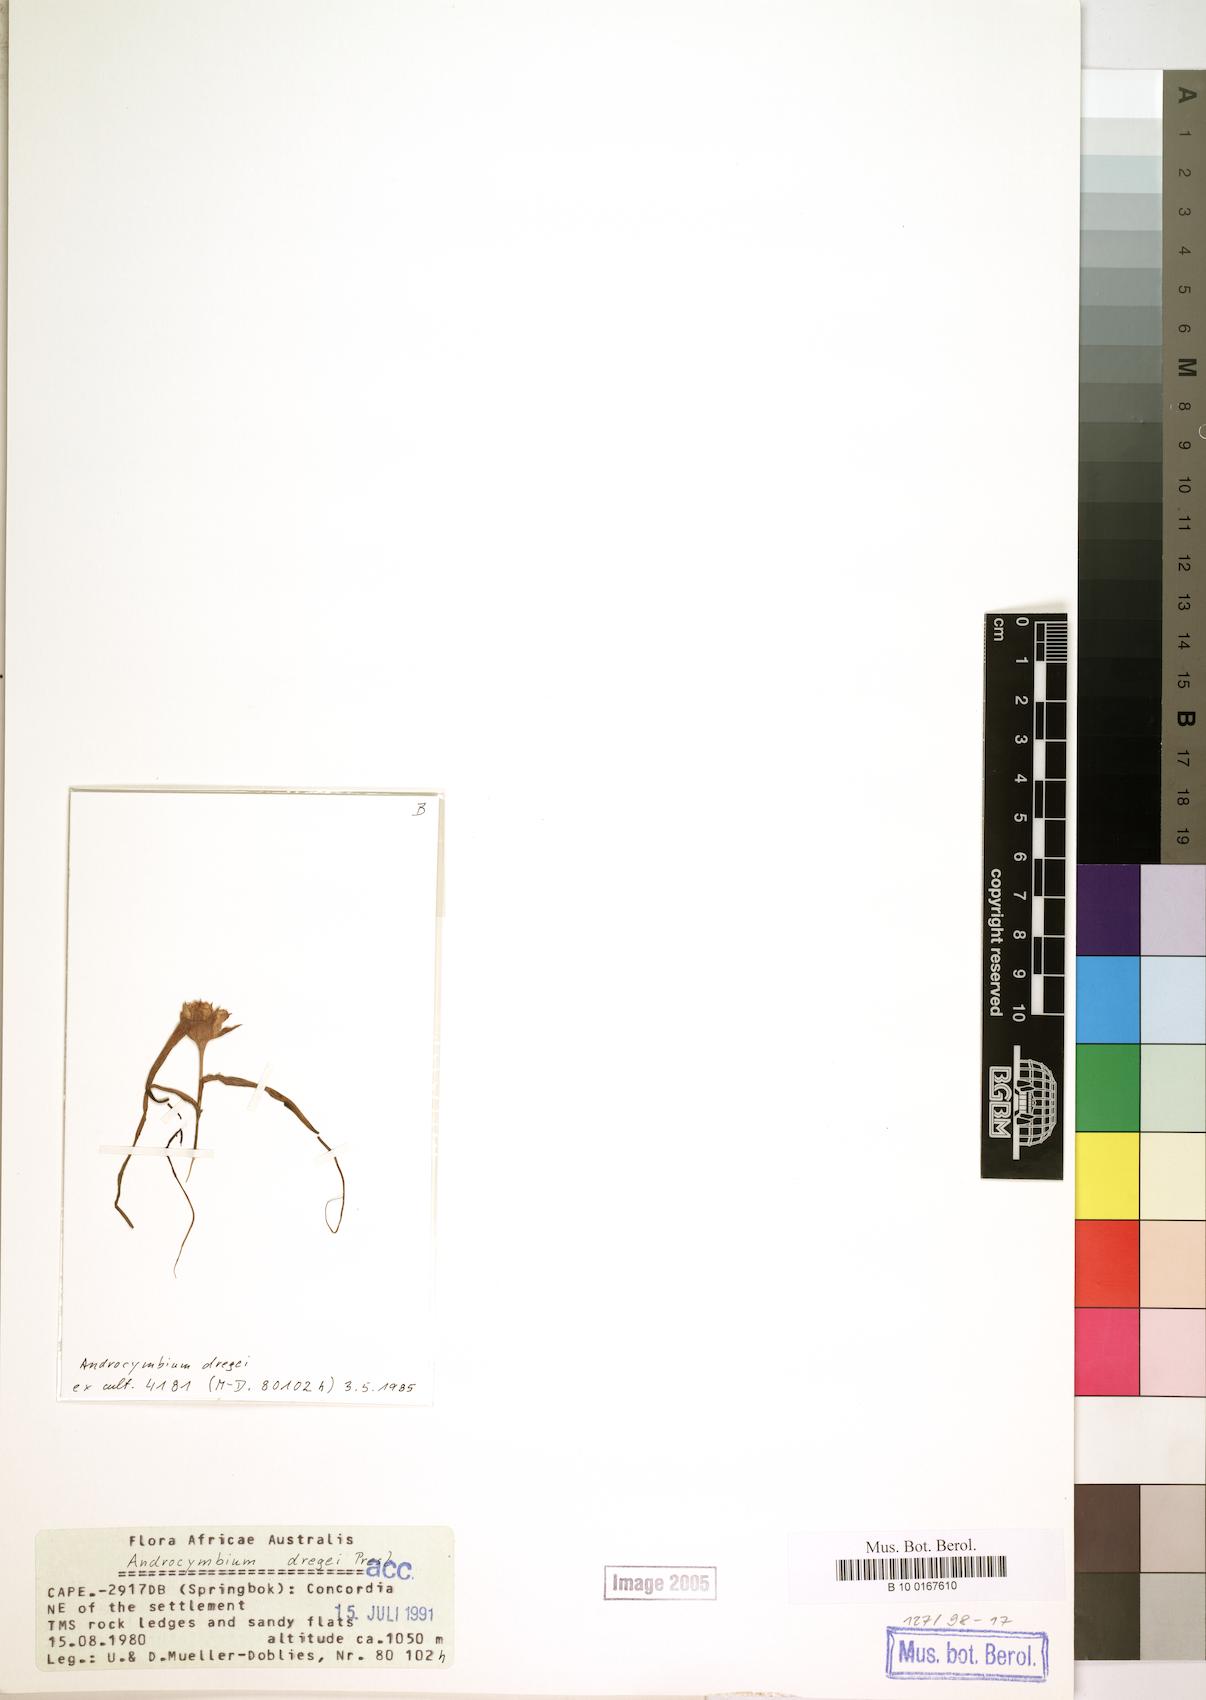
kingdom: Plantae
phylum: Tracheophyta
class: Liliopsida
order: Liliales
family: Colchicaceae
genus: Colchicum
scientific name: Colchicum dregei
